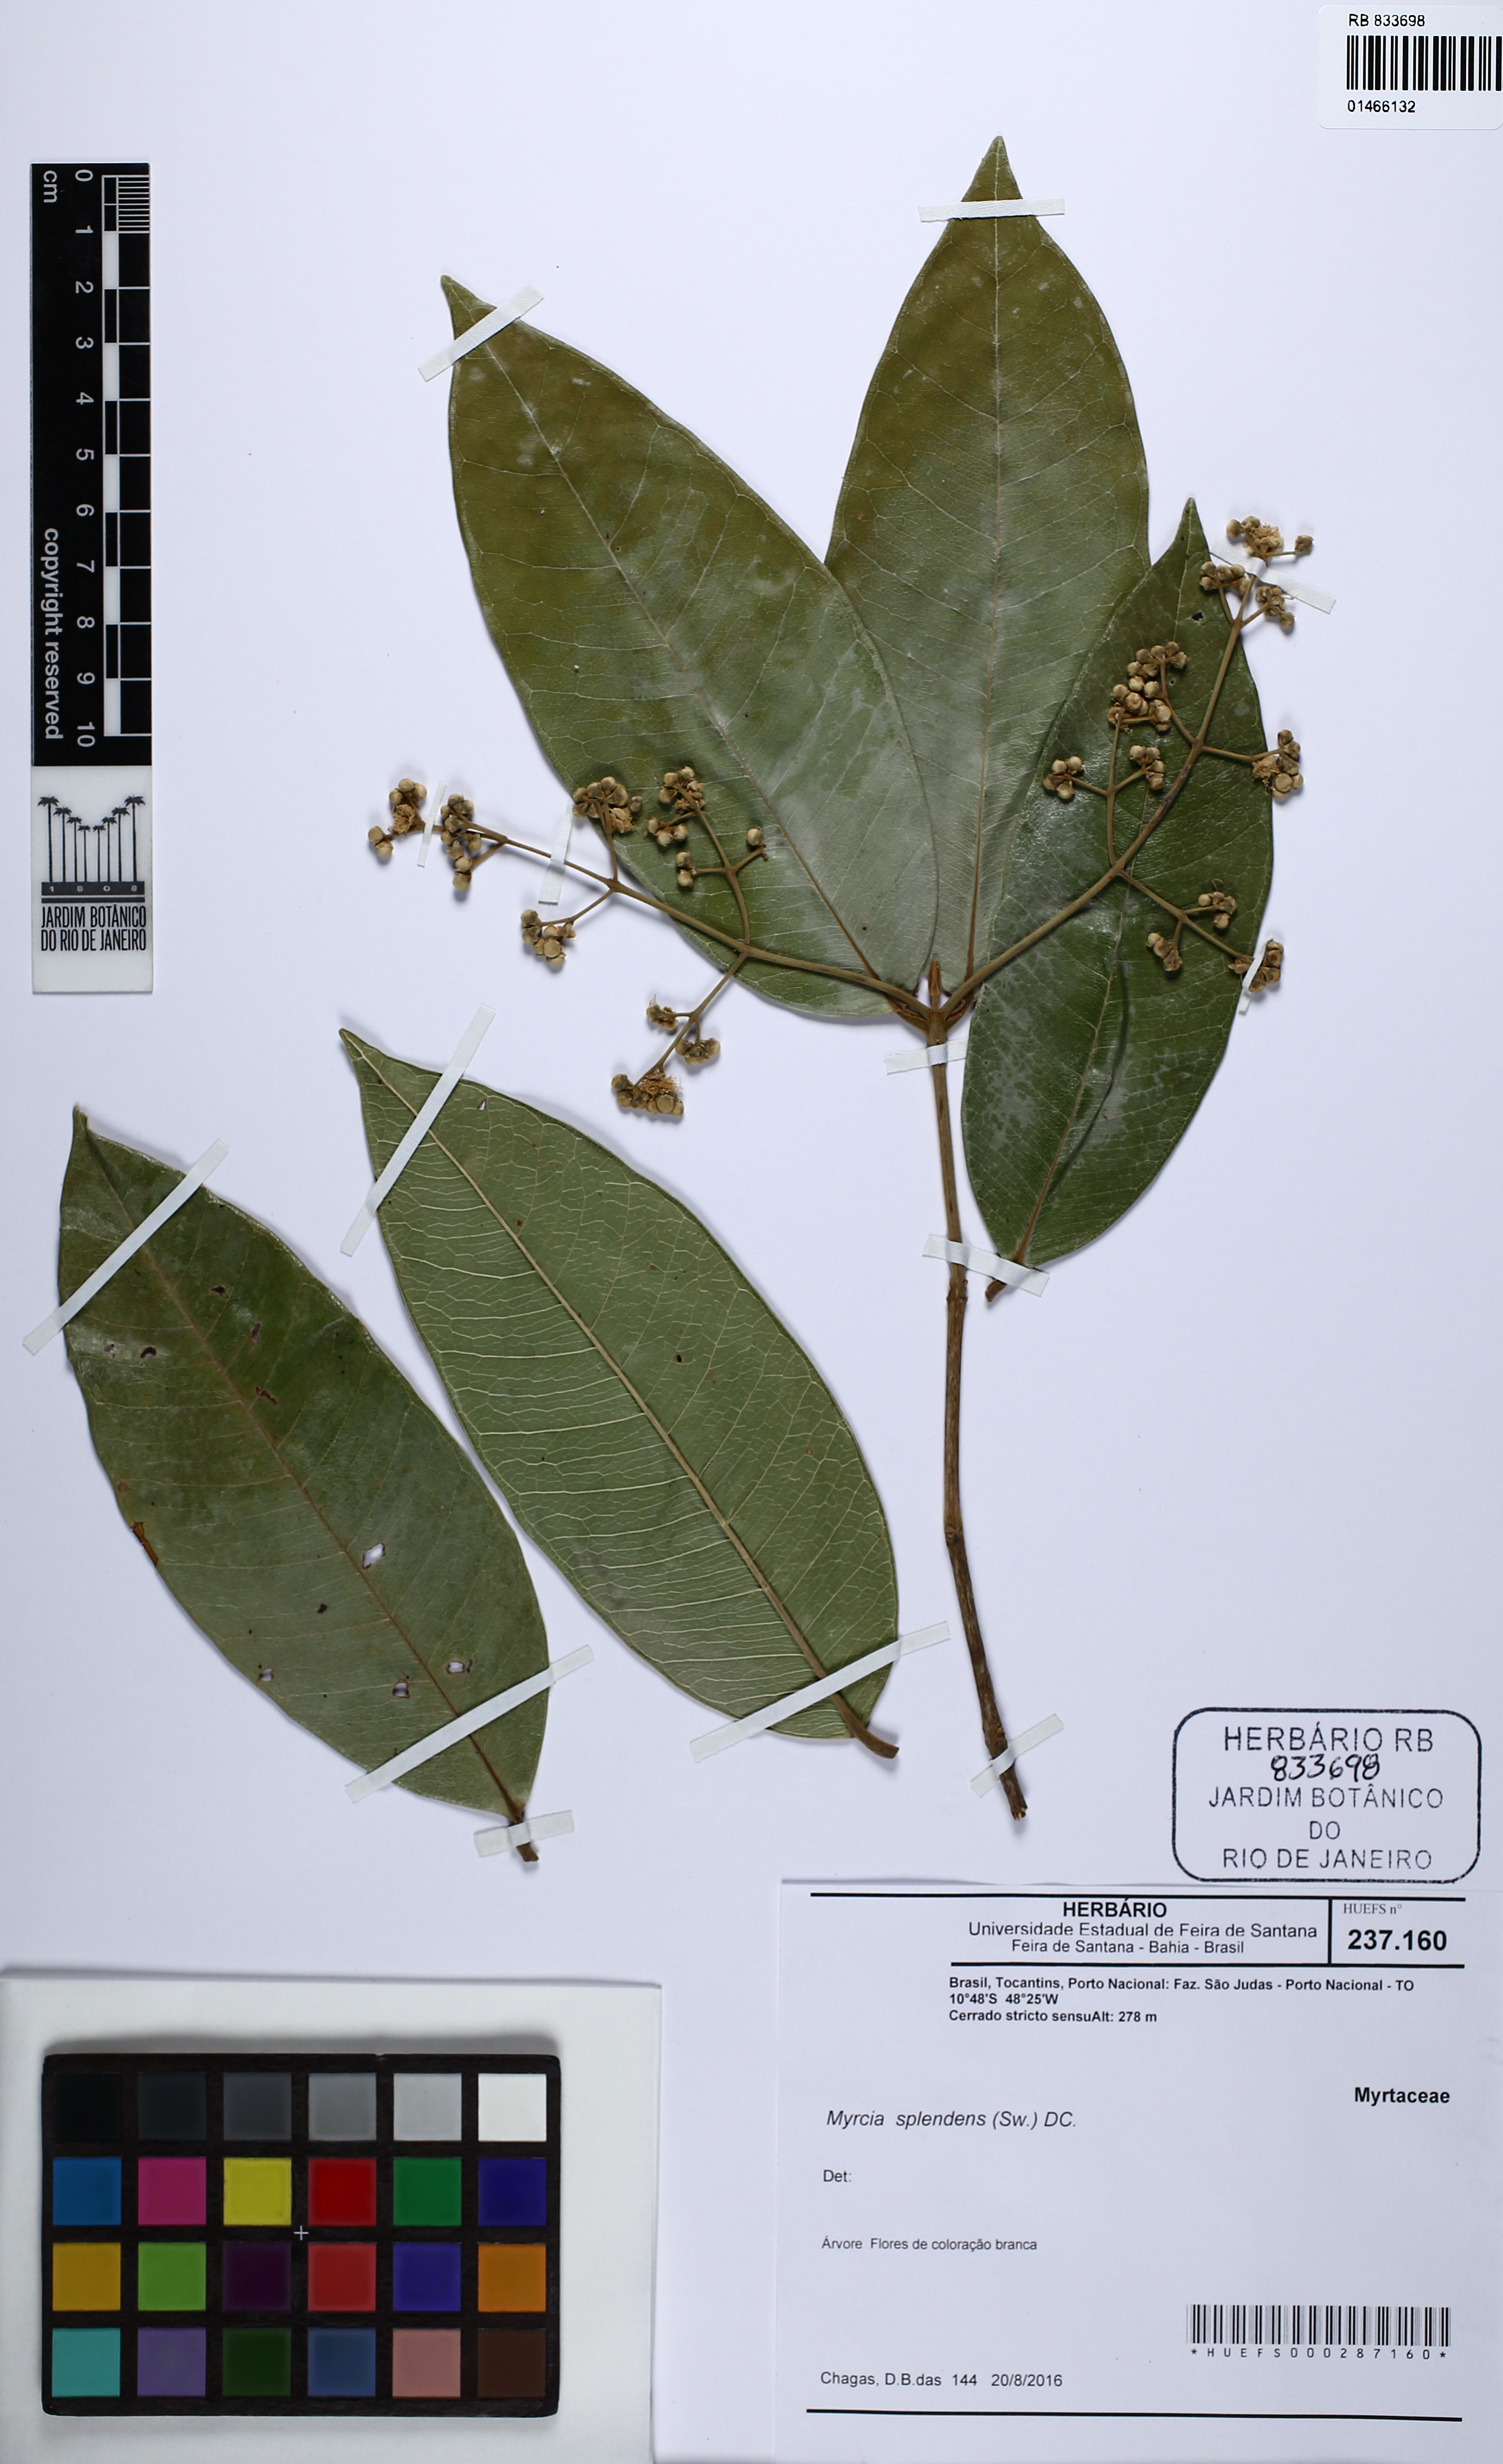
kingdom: Plantae
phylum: Tracheophyta
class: Magnoliopsida
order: Myrtales
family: Myrtaceae
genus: Myrcia
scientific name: Myrcia splendens
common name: Surinam cherry
